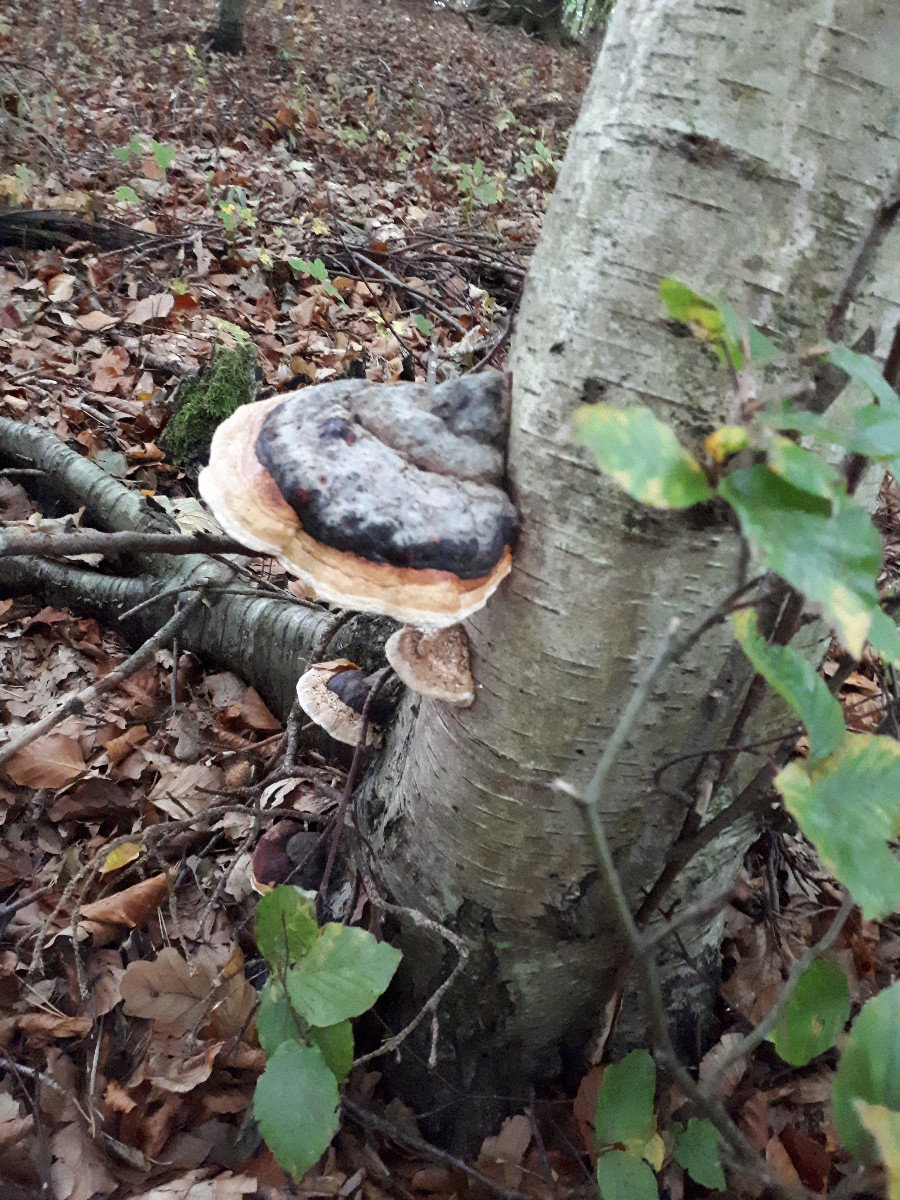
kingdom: Fungi
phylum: Basidiomycota
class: Agaricomycetes
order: Polyporales
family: Polyporaceae
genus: Fomes
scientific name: Fomes fomentarius
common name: tøndersvamp
